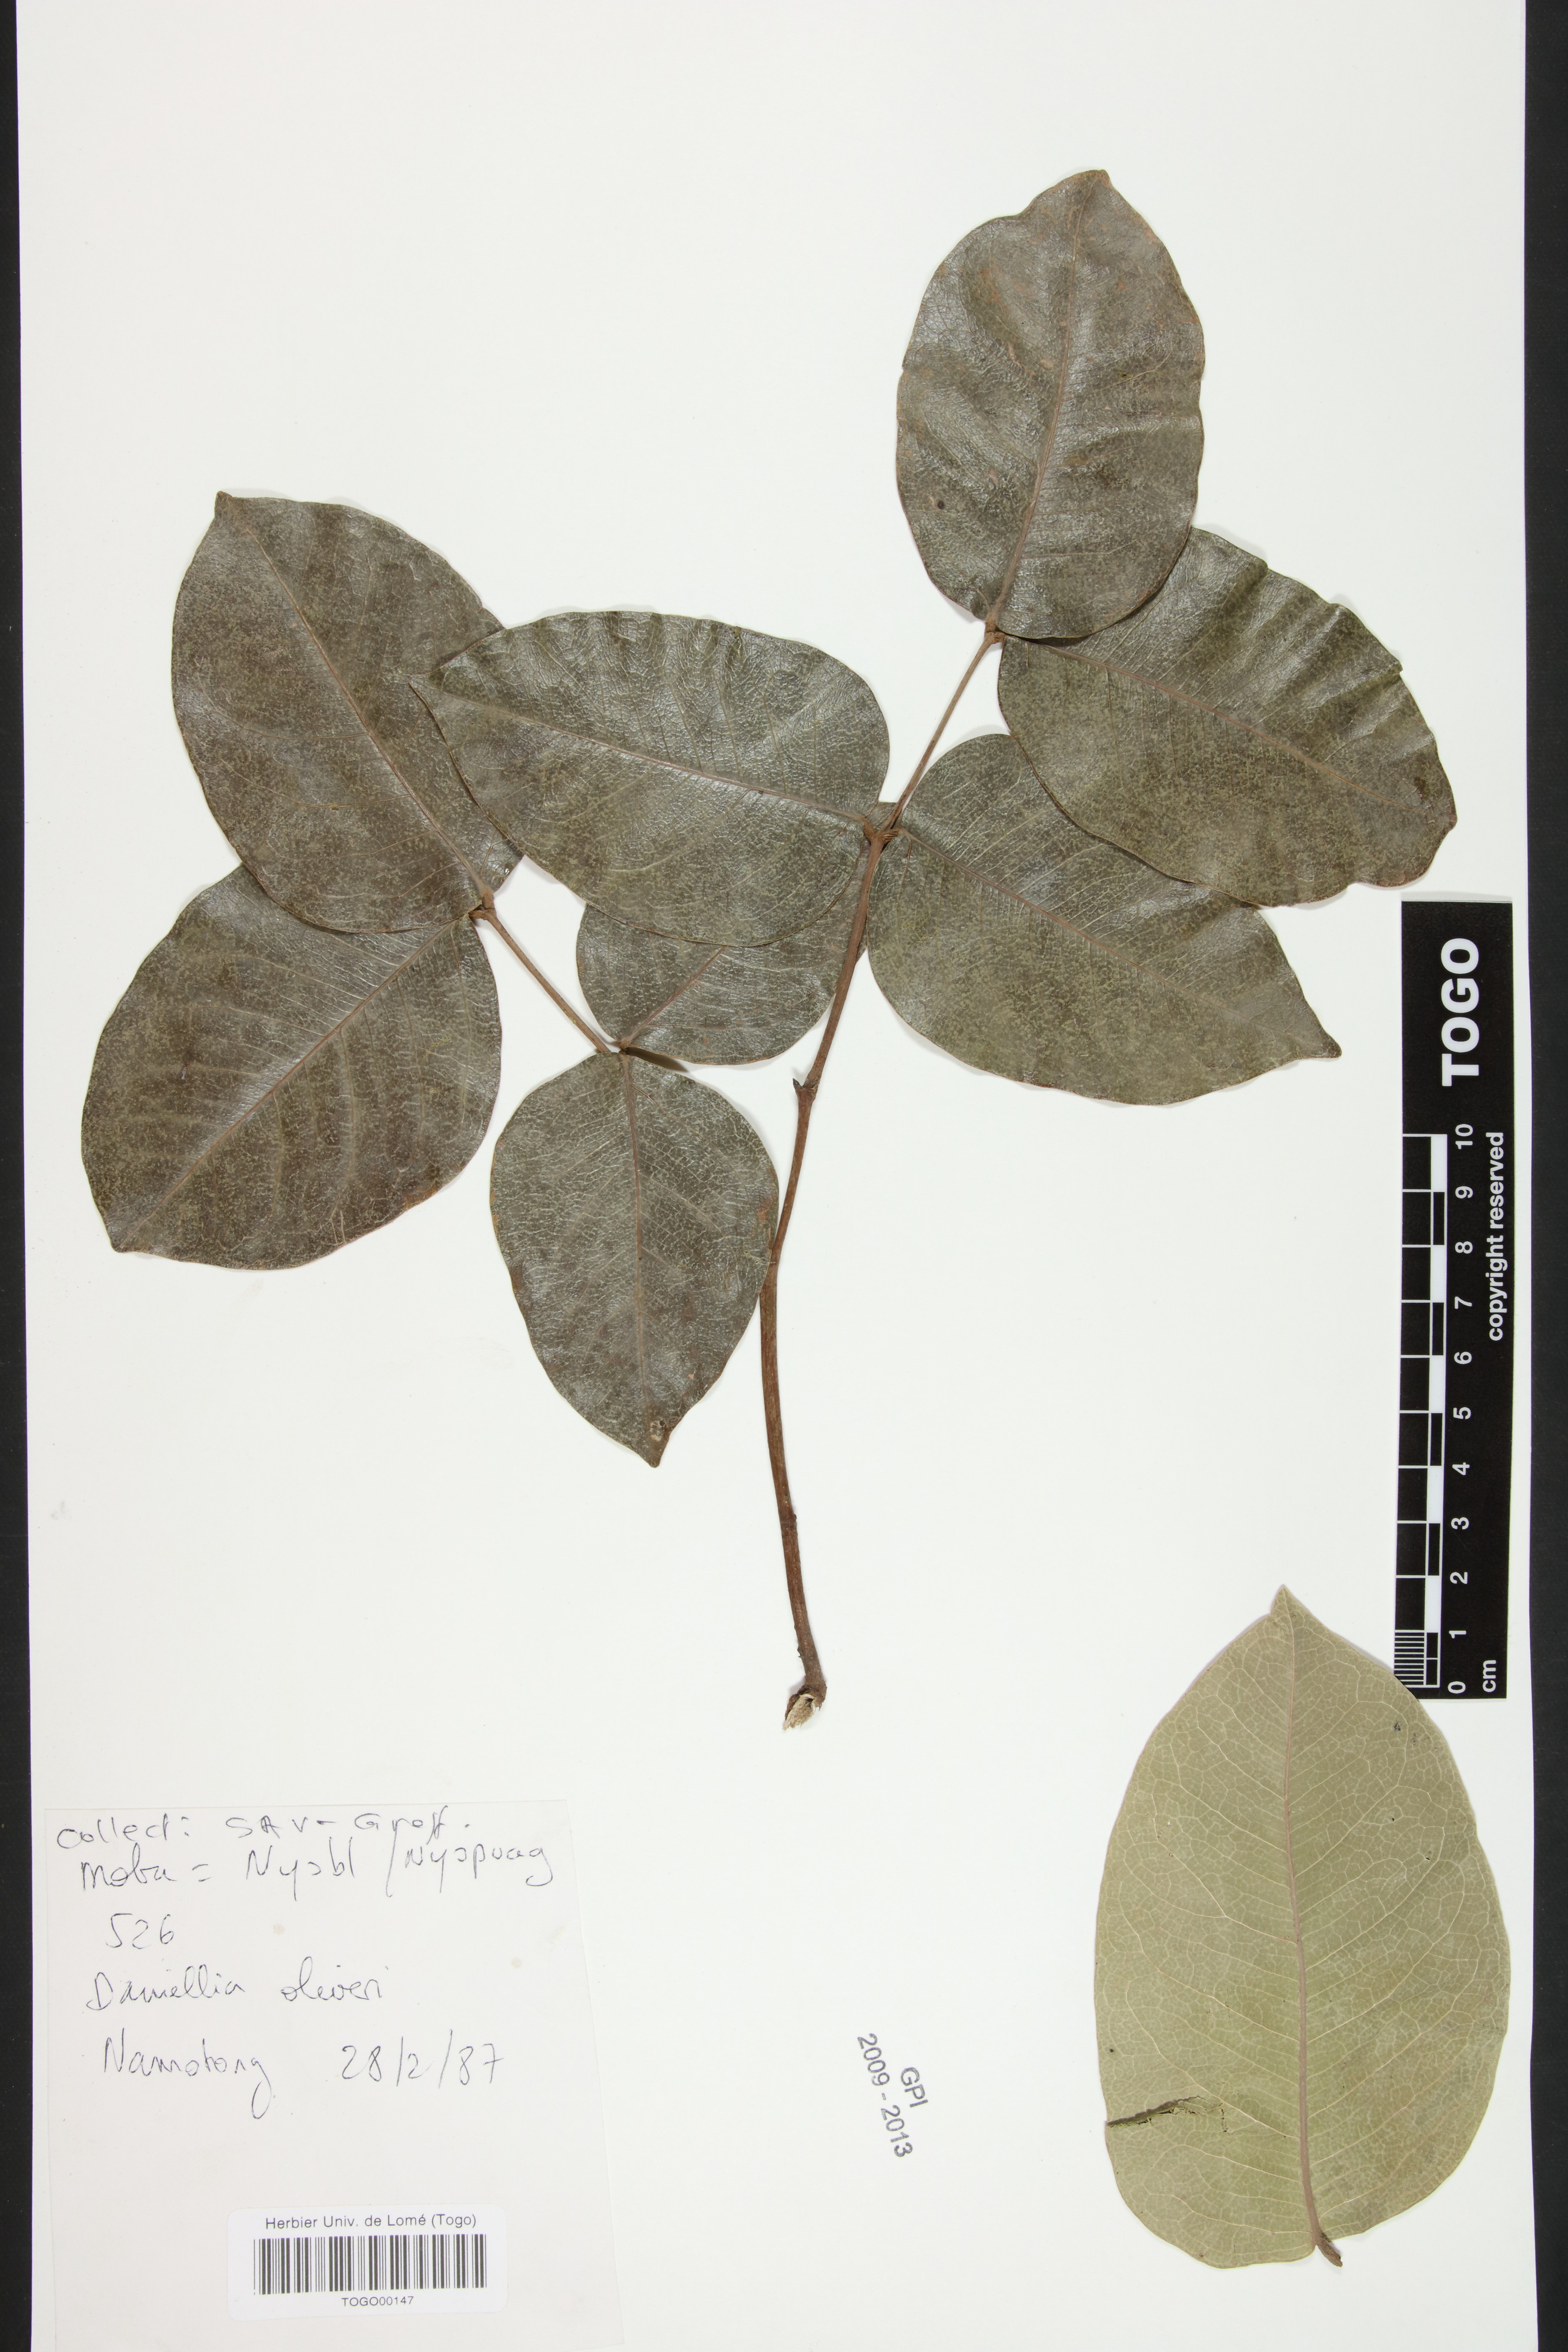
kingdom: Plantae
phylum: Tracheophyta
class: Magnoliopsida
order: Fabales
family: Fabaceae
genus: Daniellia
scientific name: Daniellia oliveri
